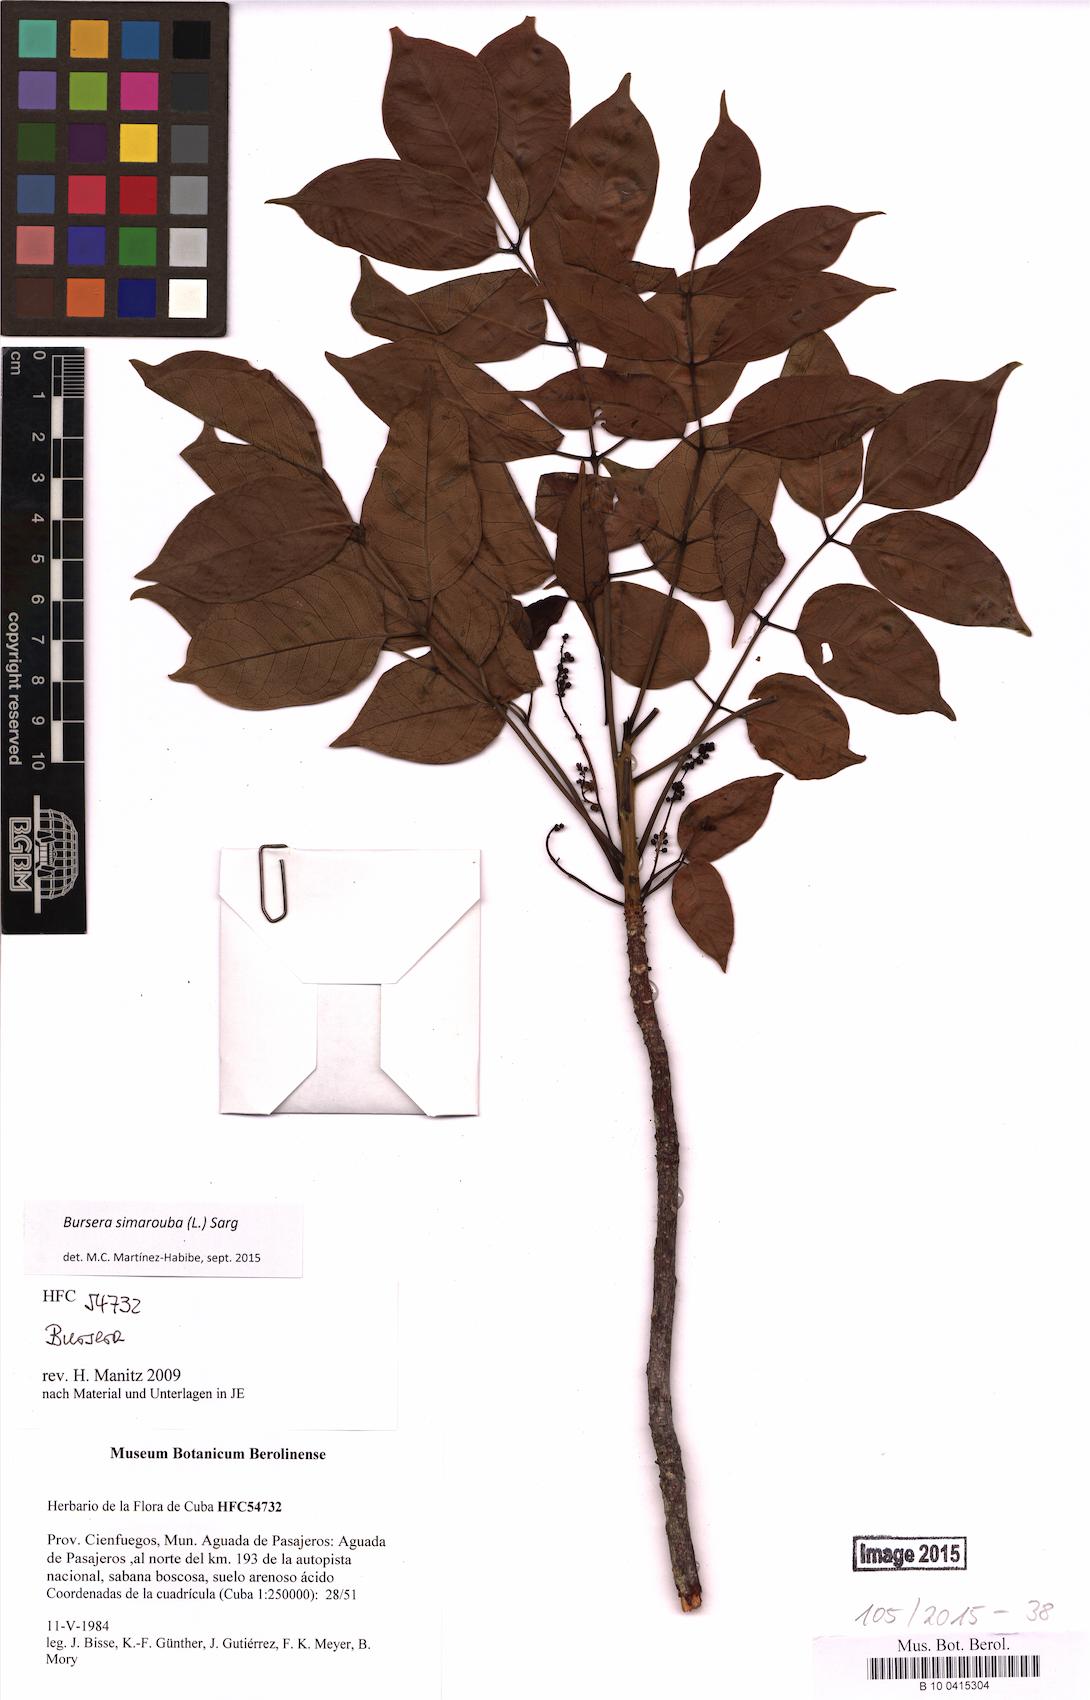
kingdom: Plantae
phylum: Tracheophyta
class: Magnoliopsida
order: Sapindales
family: Burseraceae
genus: Bursera
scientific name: Bursera simaruba
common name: Turpentine tree
